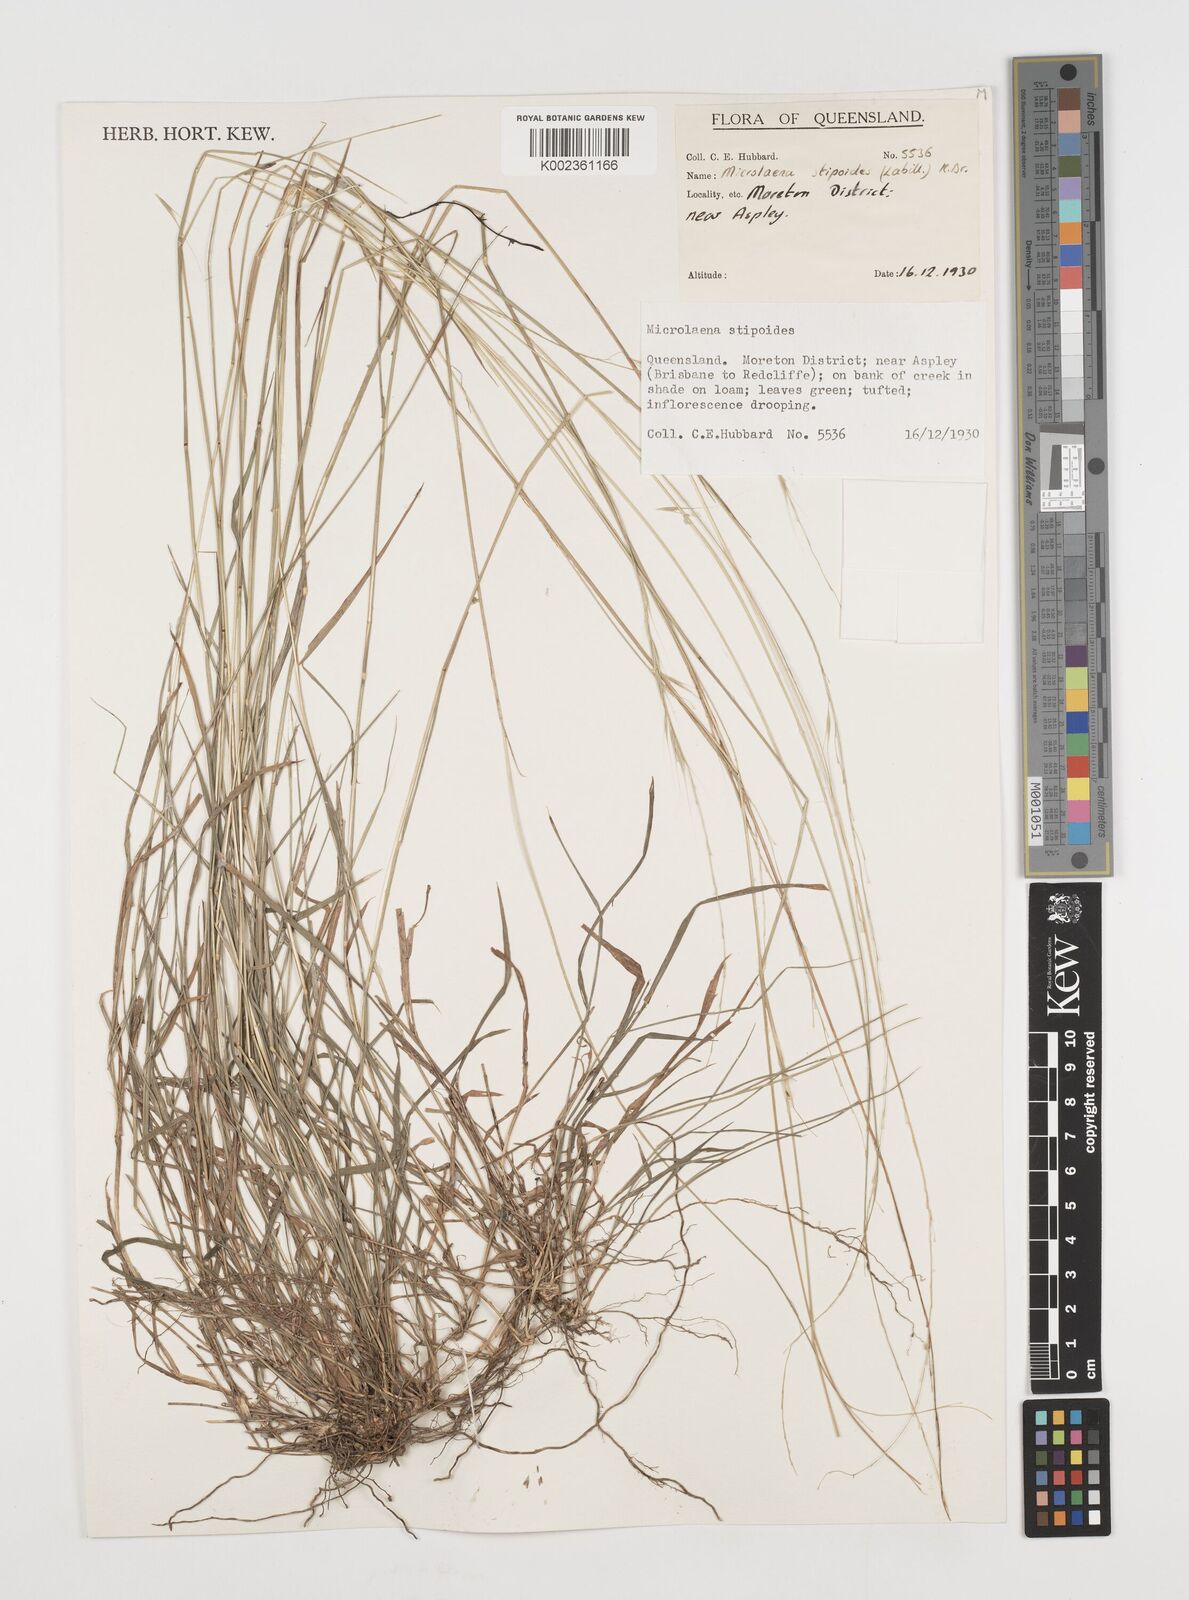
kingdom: Plantae
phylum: Tracheophyta
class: Liliopsida
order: Poales
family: Poaceae
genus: Microlaena
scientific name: Microlaena stipoides
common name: Meadow ricegrass
